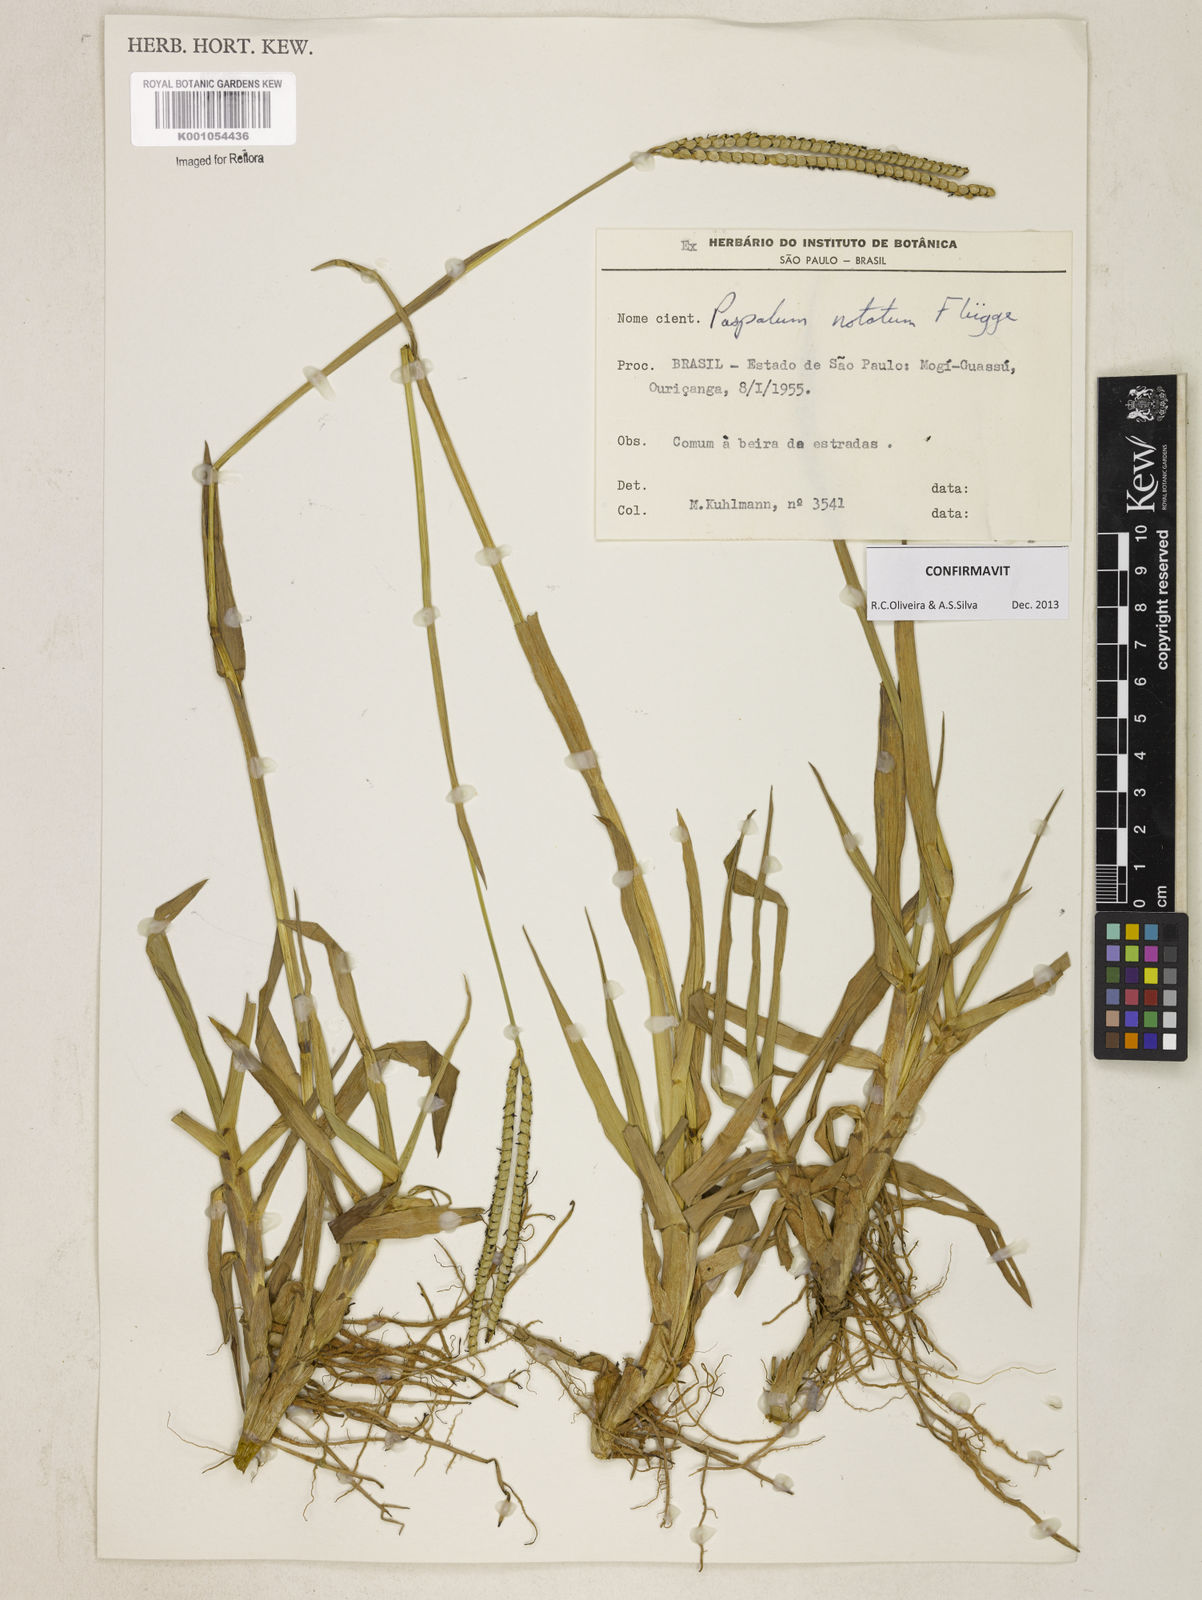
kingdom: Plantae
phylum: Tracheophyta
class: Liliopsida
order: Poales
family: Poaceae
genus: Paspalum
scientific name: Paspalum
